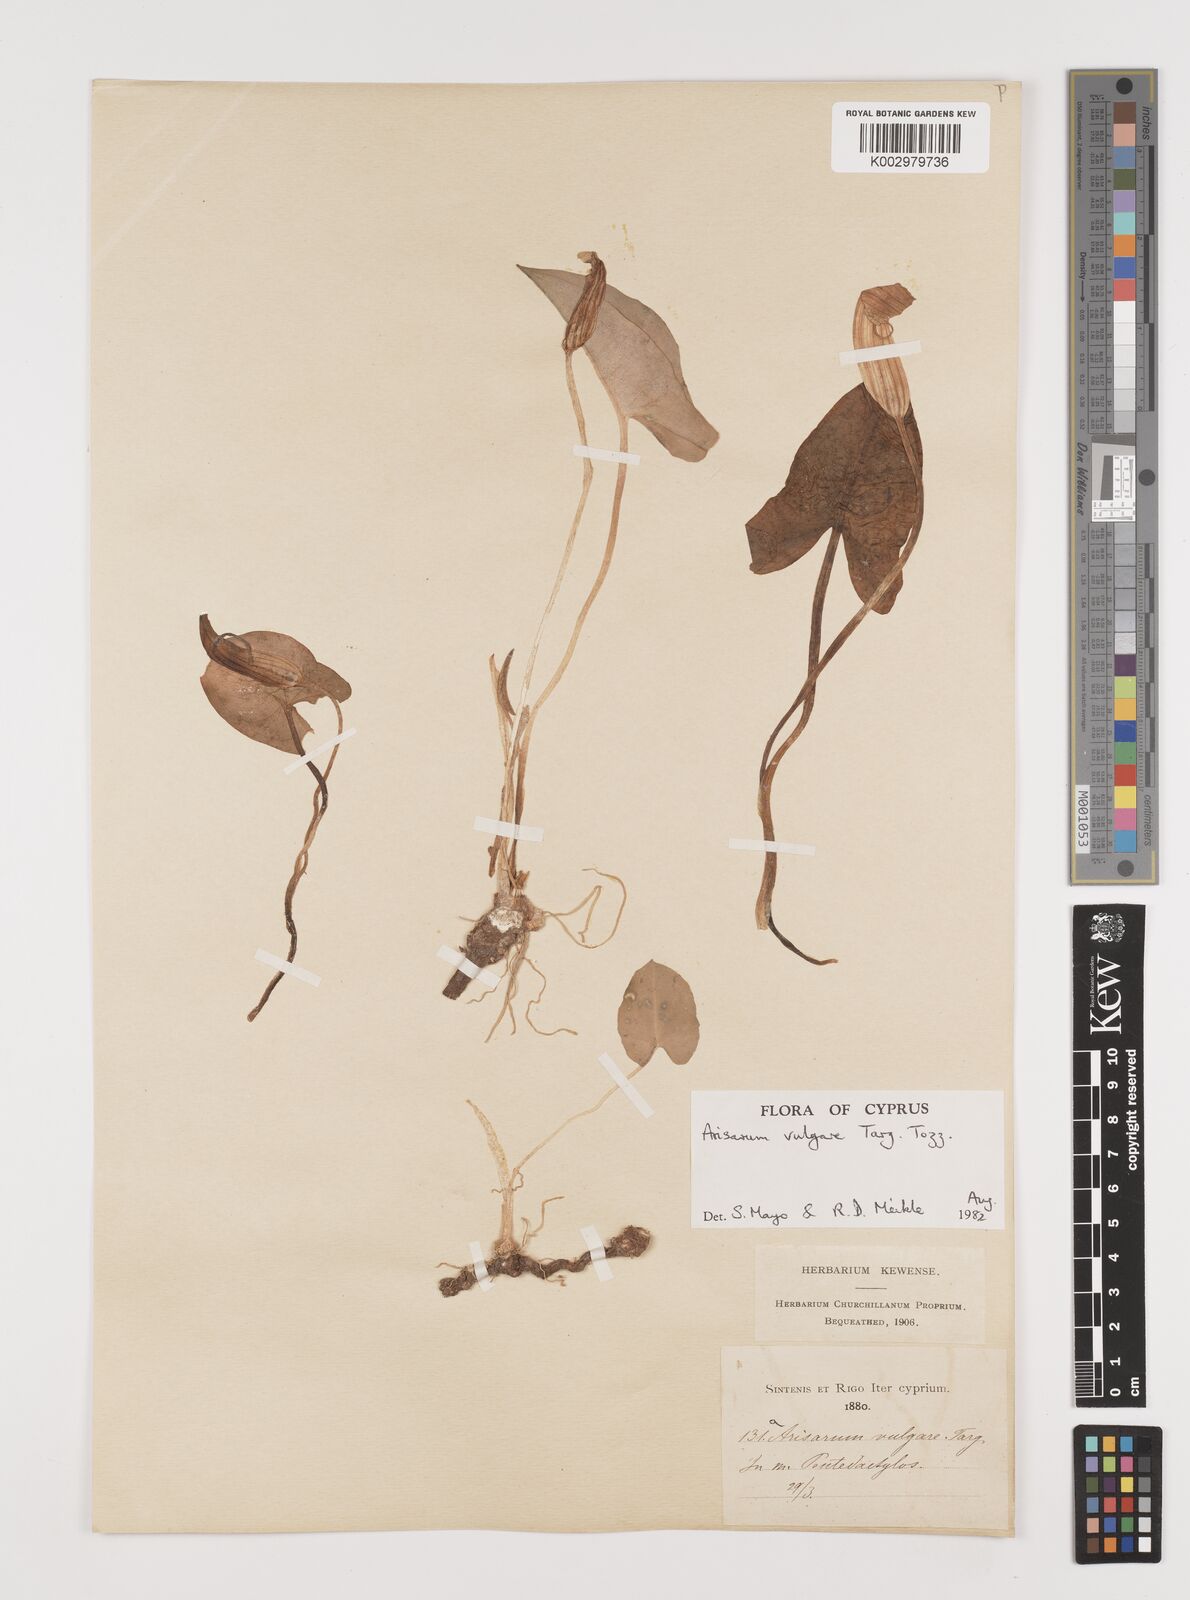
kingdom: Plantae
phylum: Tracheophyta
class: Liliopsida
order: Alismatales
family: Araceae
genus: Arisarum
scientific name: Arisarum vulgare
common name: Common arisarum
